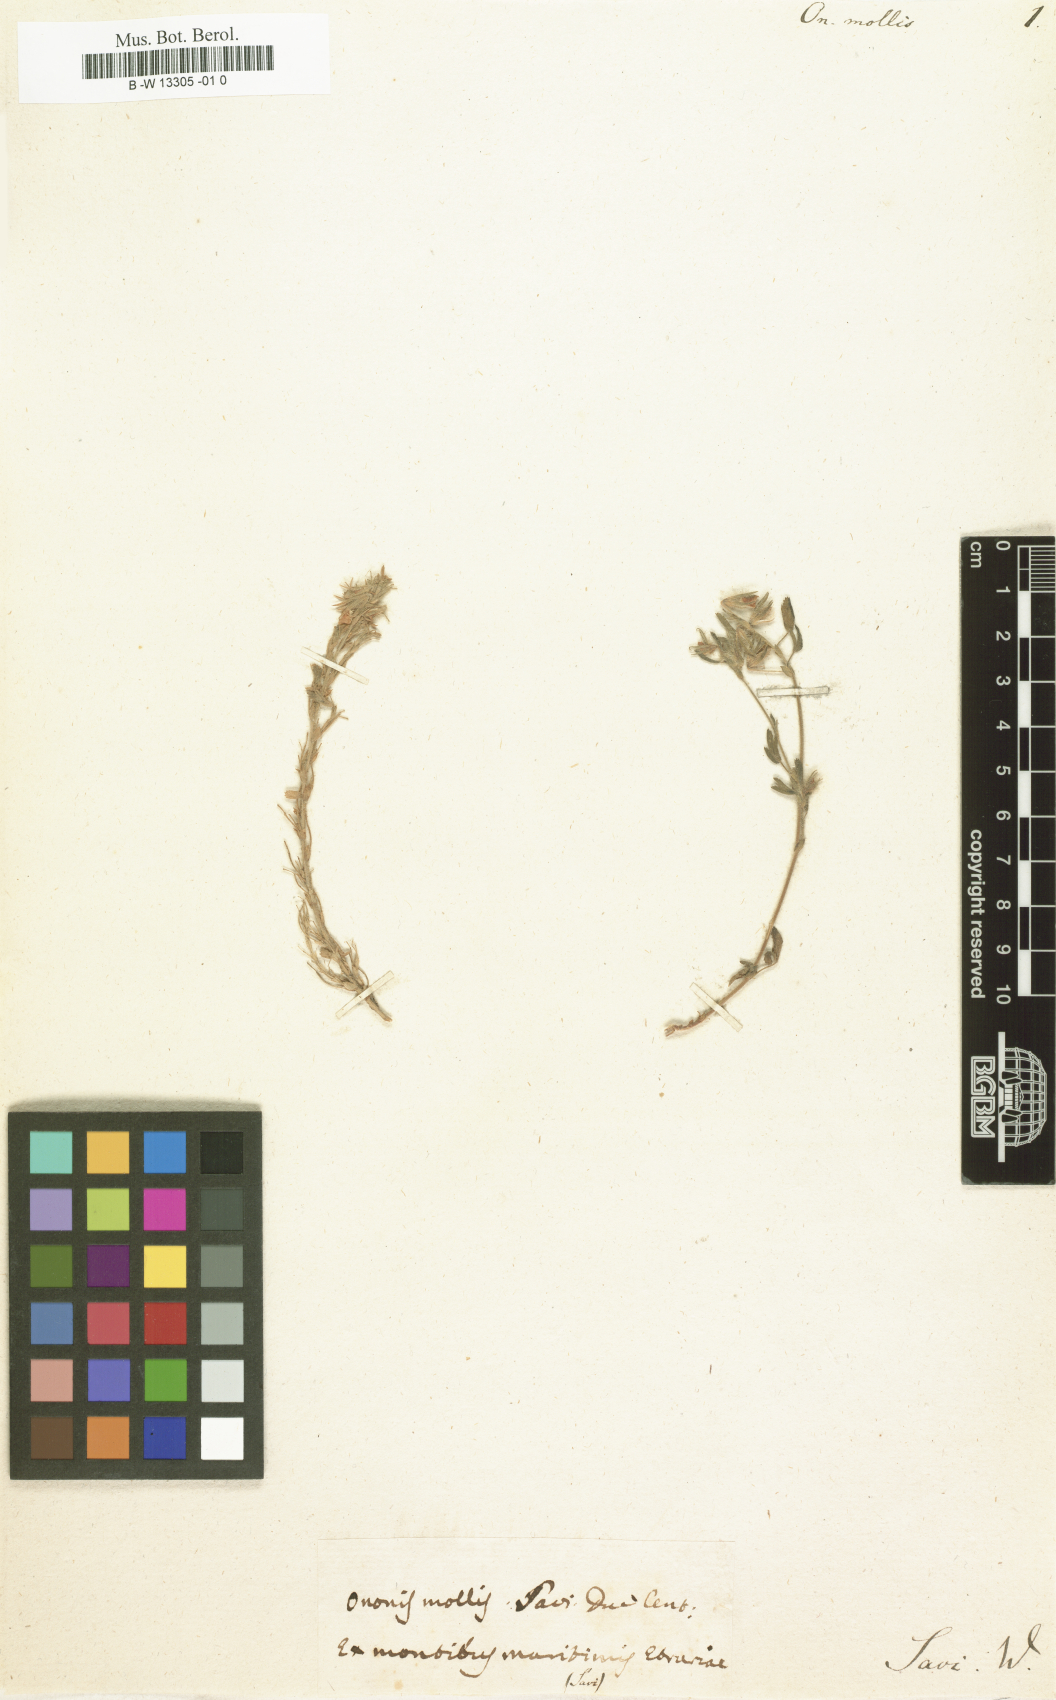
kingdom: Plantae
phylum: Tracheophyta
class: Magnoliopsida
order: Fabales
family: Fabaceae
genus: Ononis
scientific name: Ononis reclinata
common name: Small restharrow
